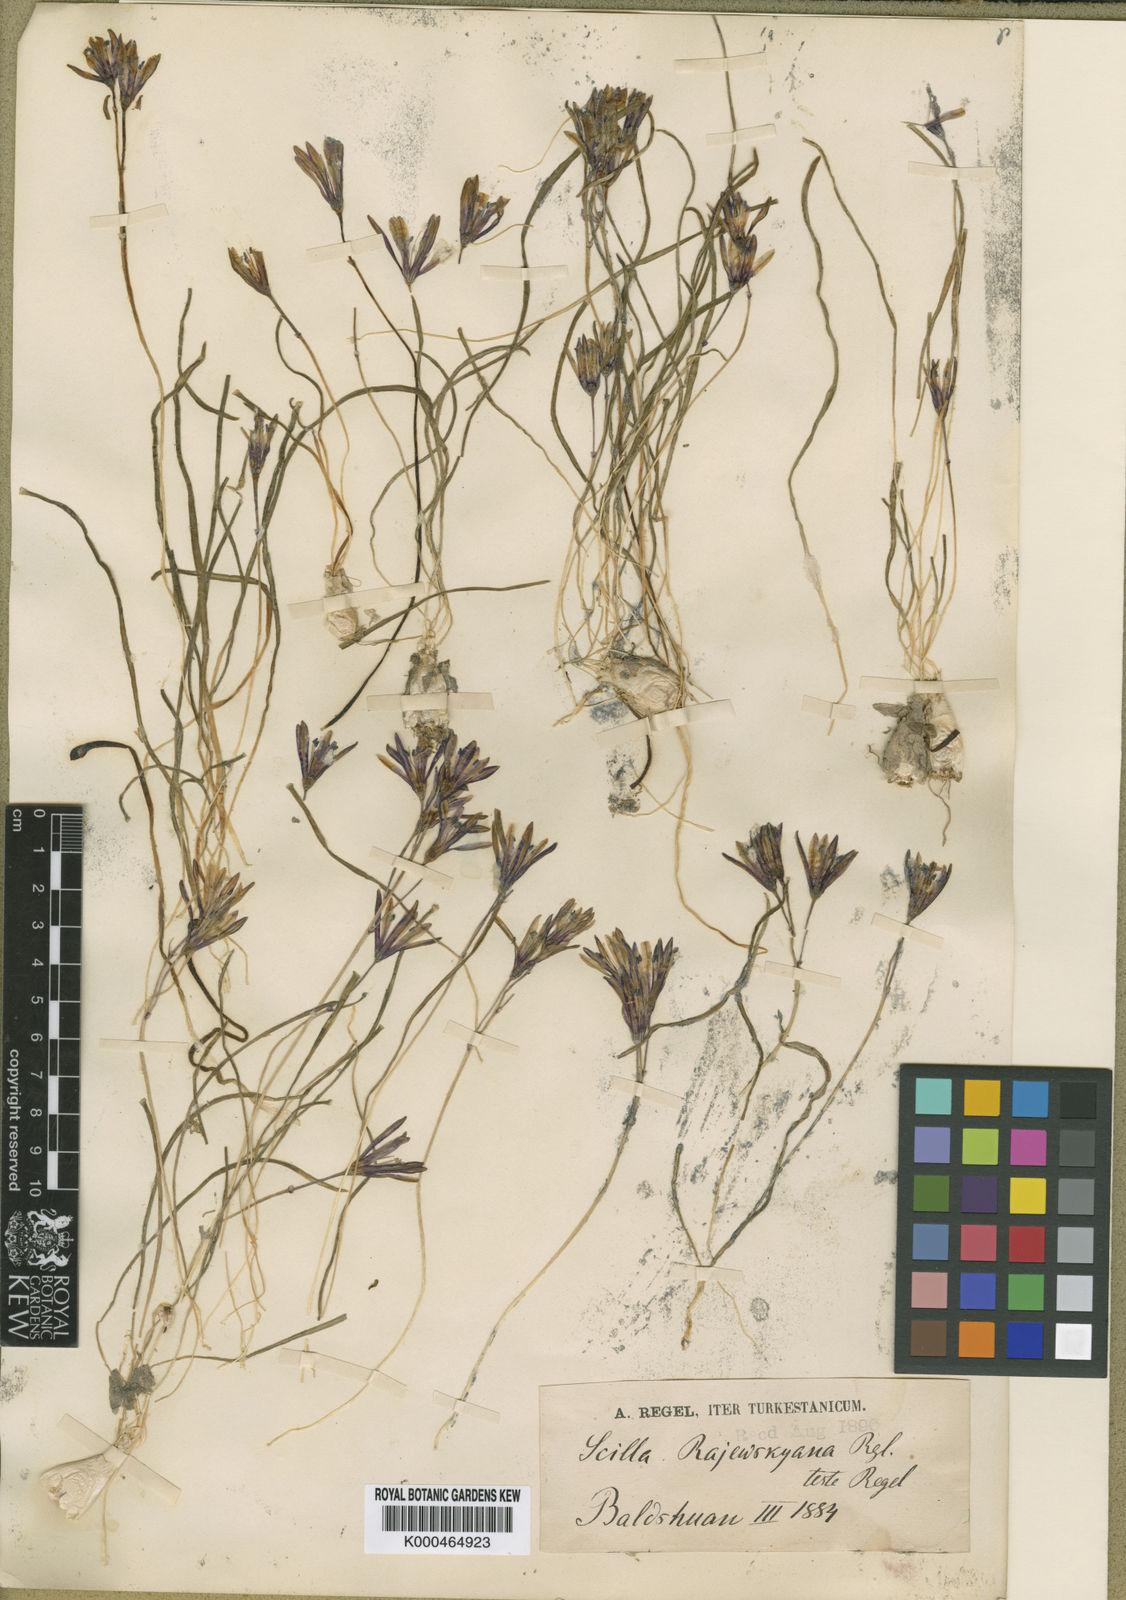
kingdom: Plantae
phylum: Tracheophyta
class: Liliopsida
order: Asparagales
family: Asparagaceae
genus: Scilla
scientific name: Scilla
